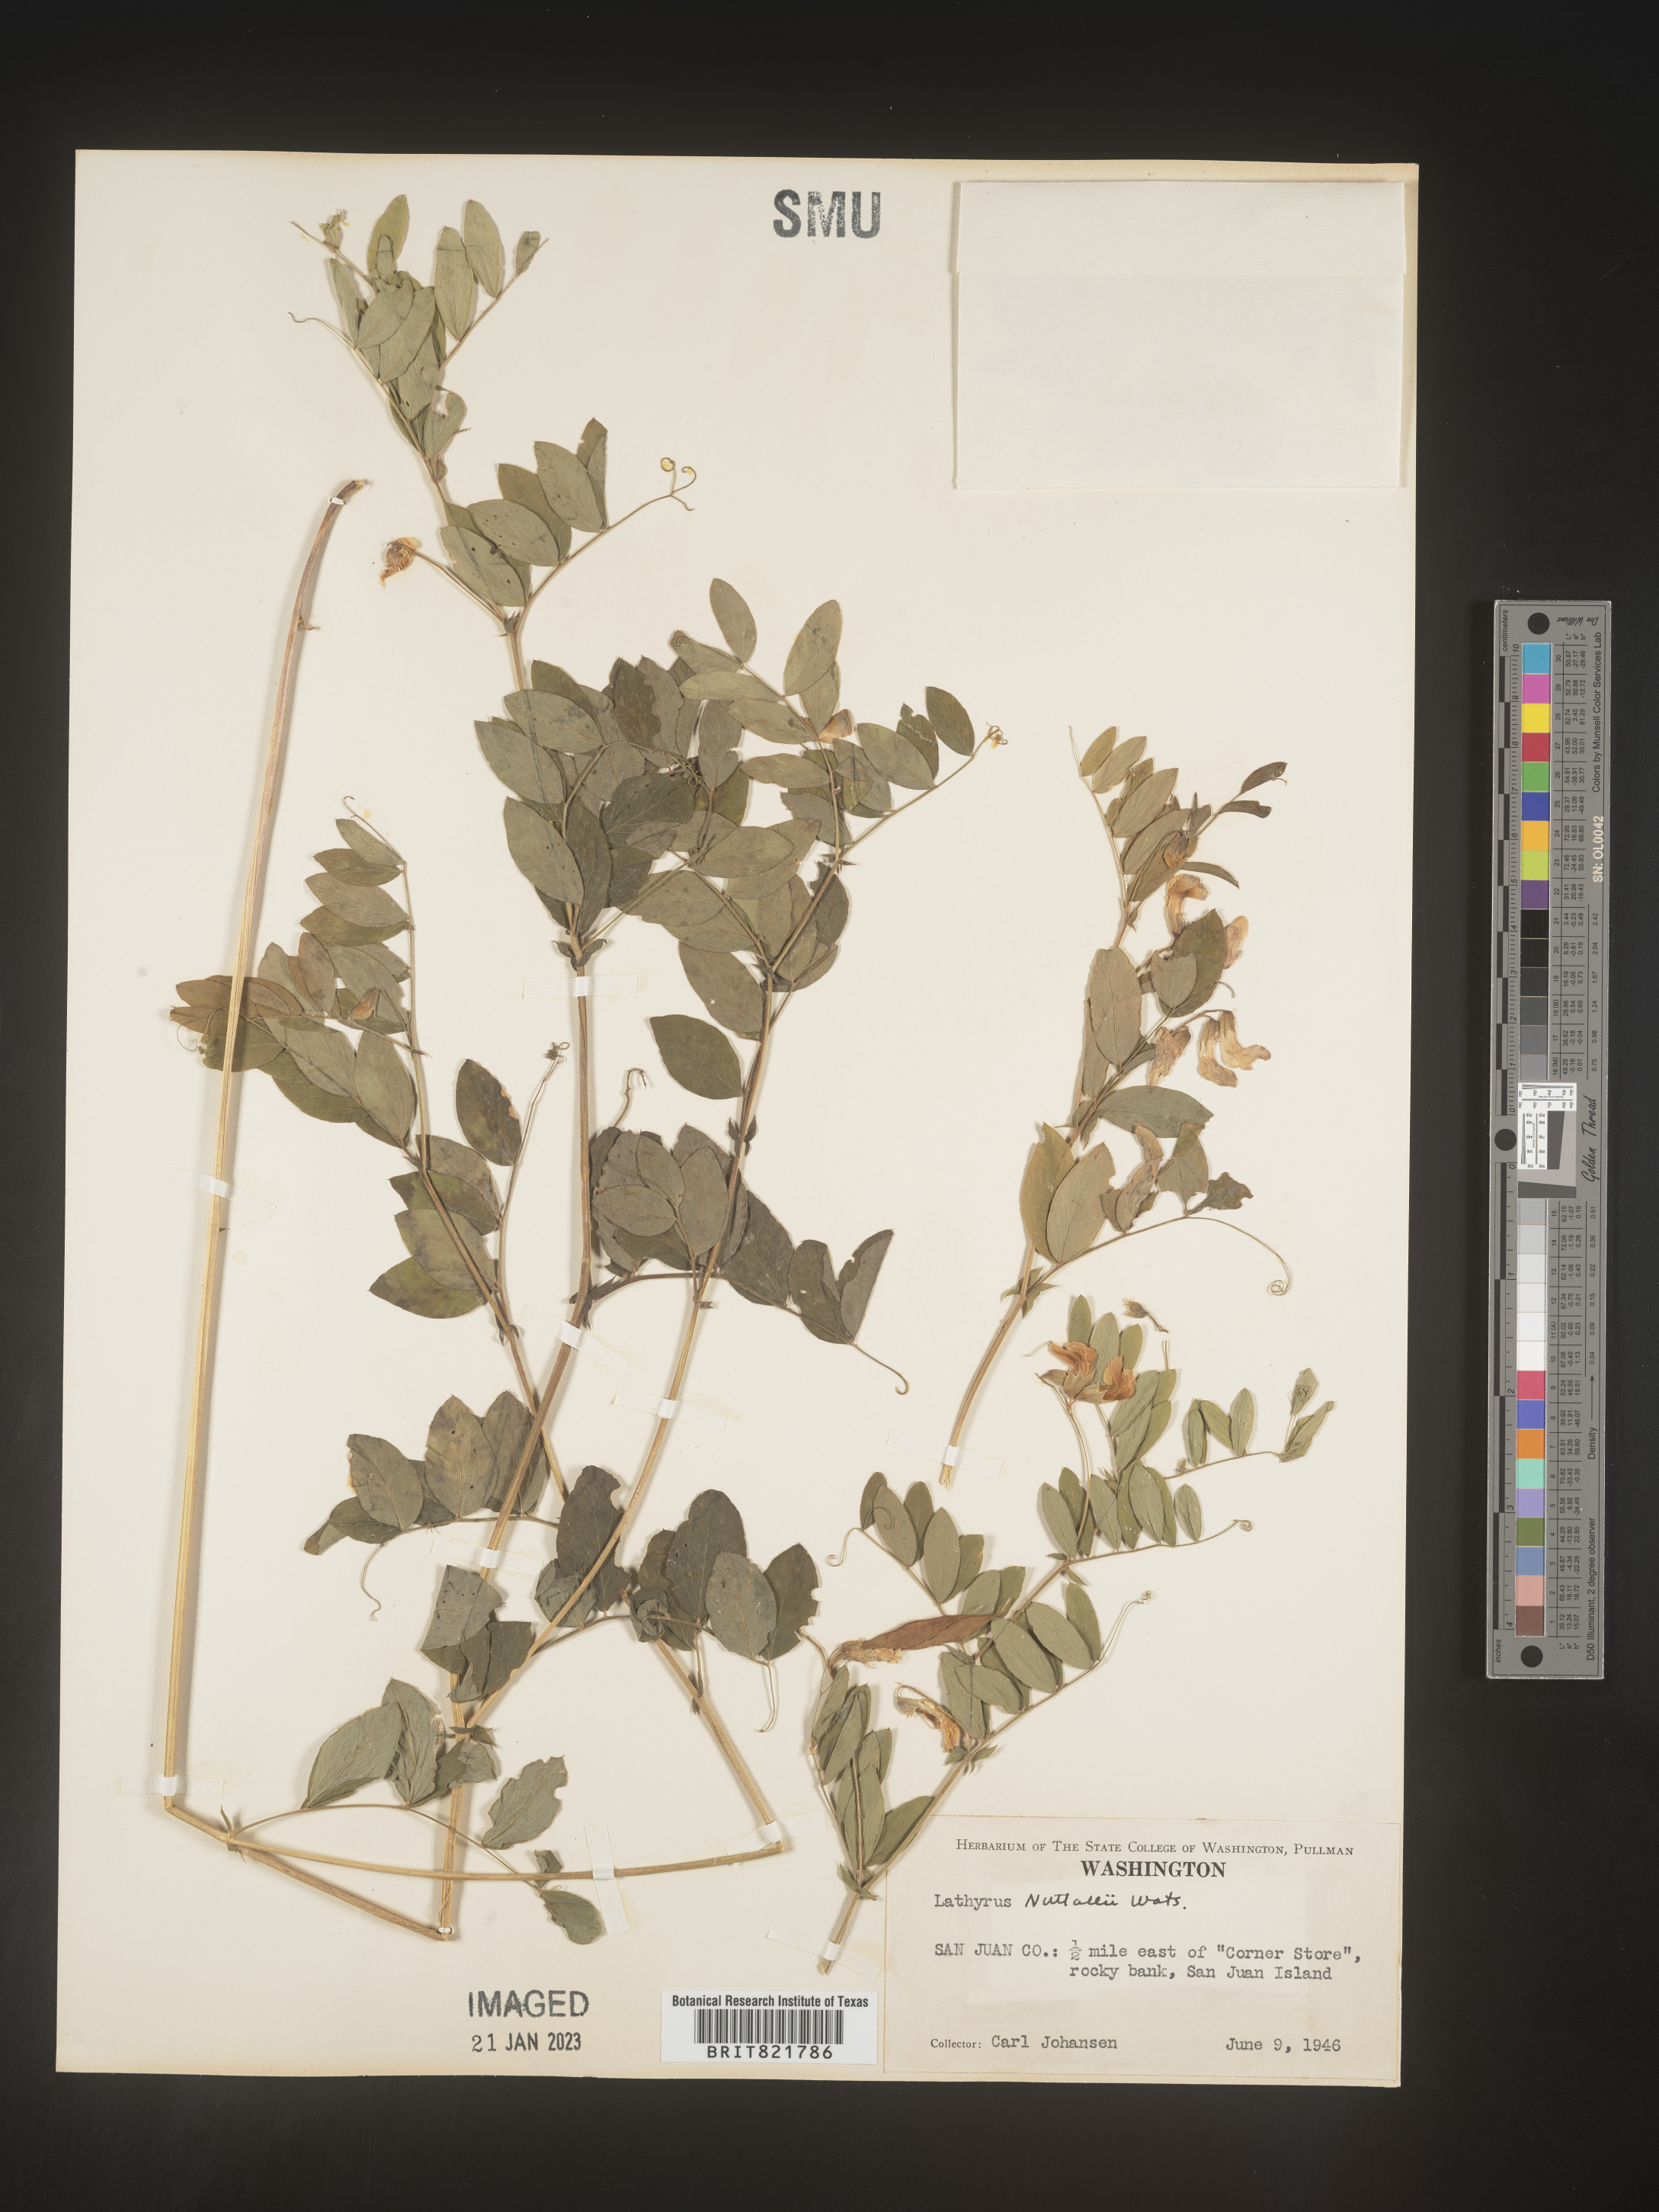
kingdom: Plantae
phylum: Tracheophyta
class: Magnoliopsida
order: Fabales
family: Fabaceae
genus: Lathyrus
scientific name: Lathyrus
